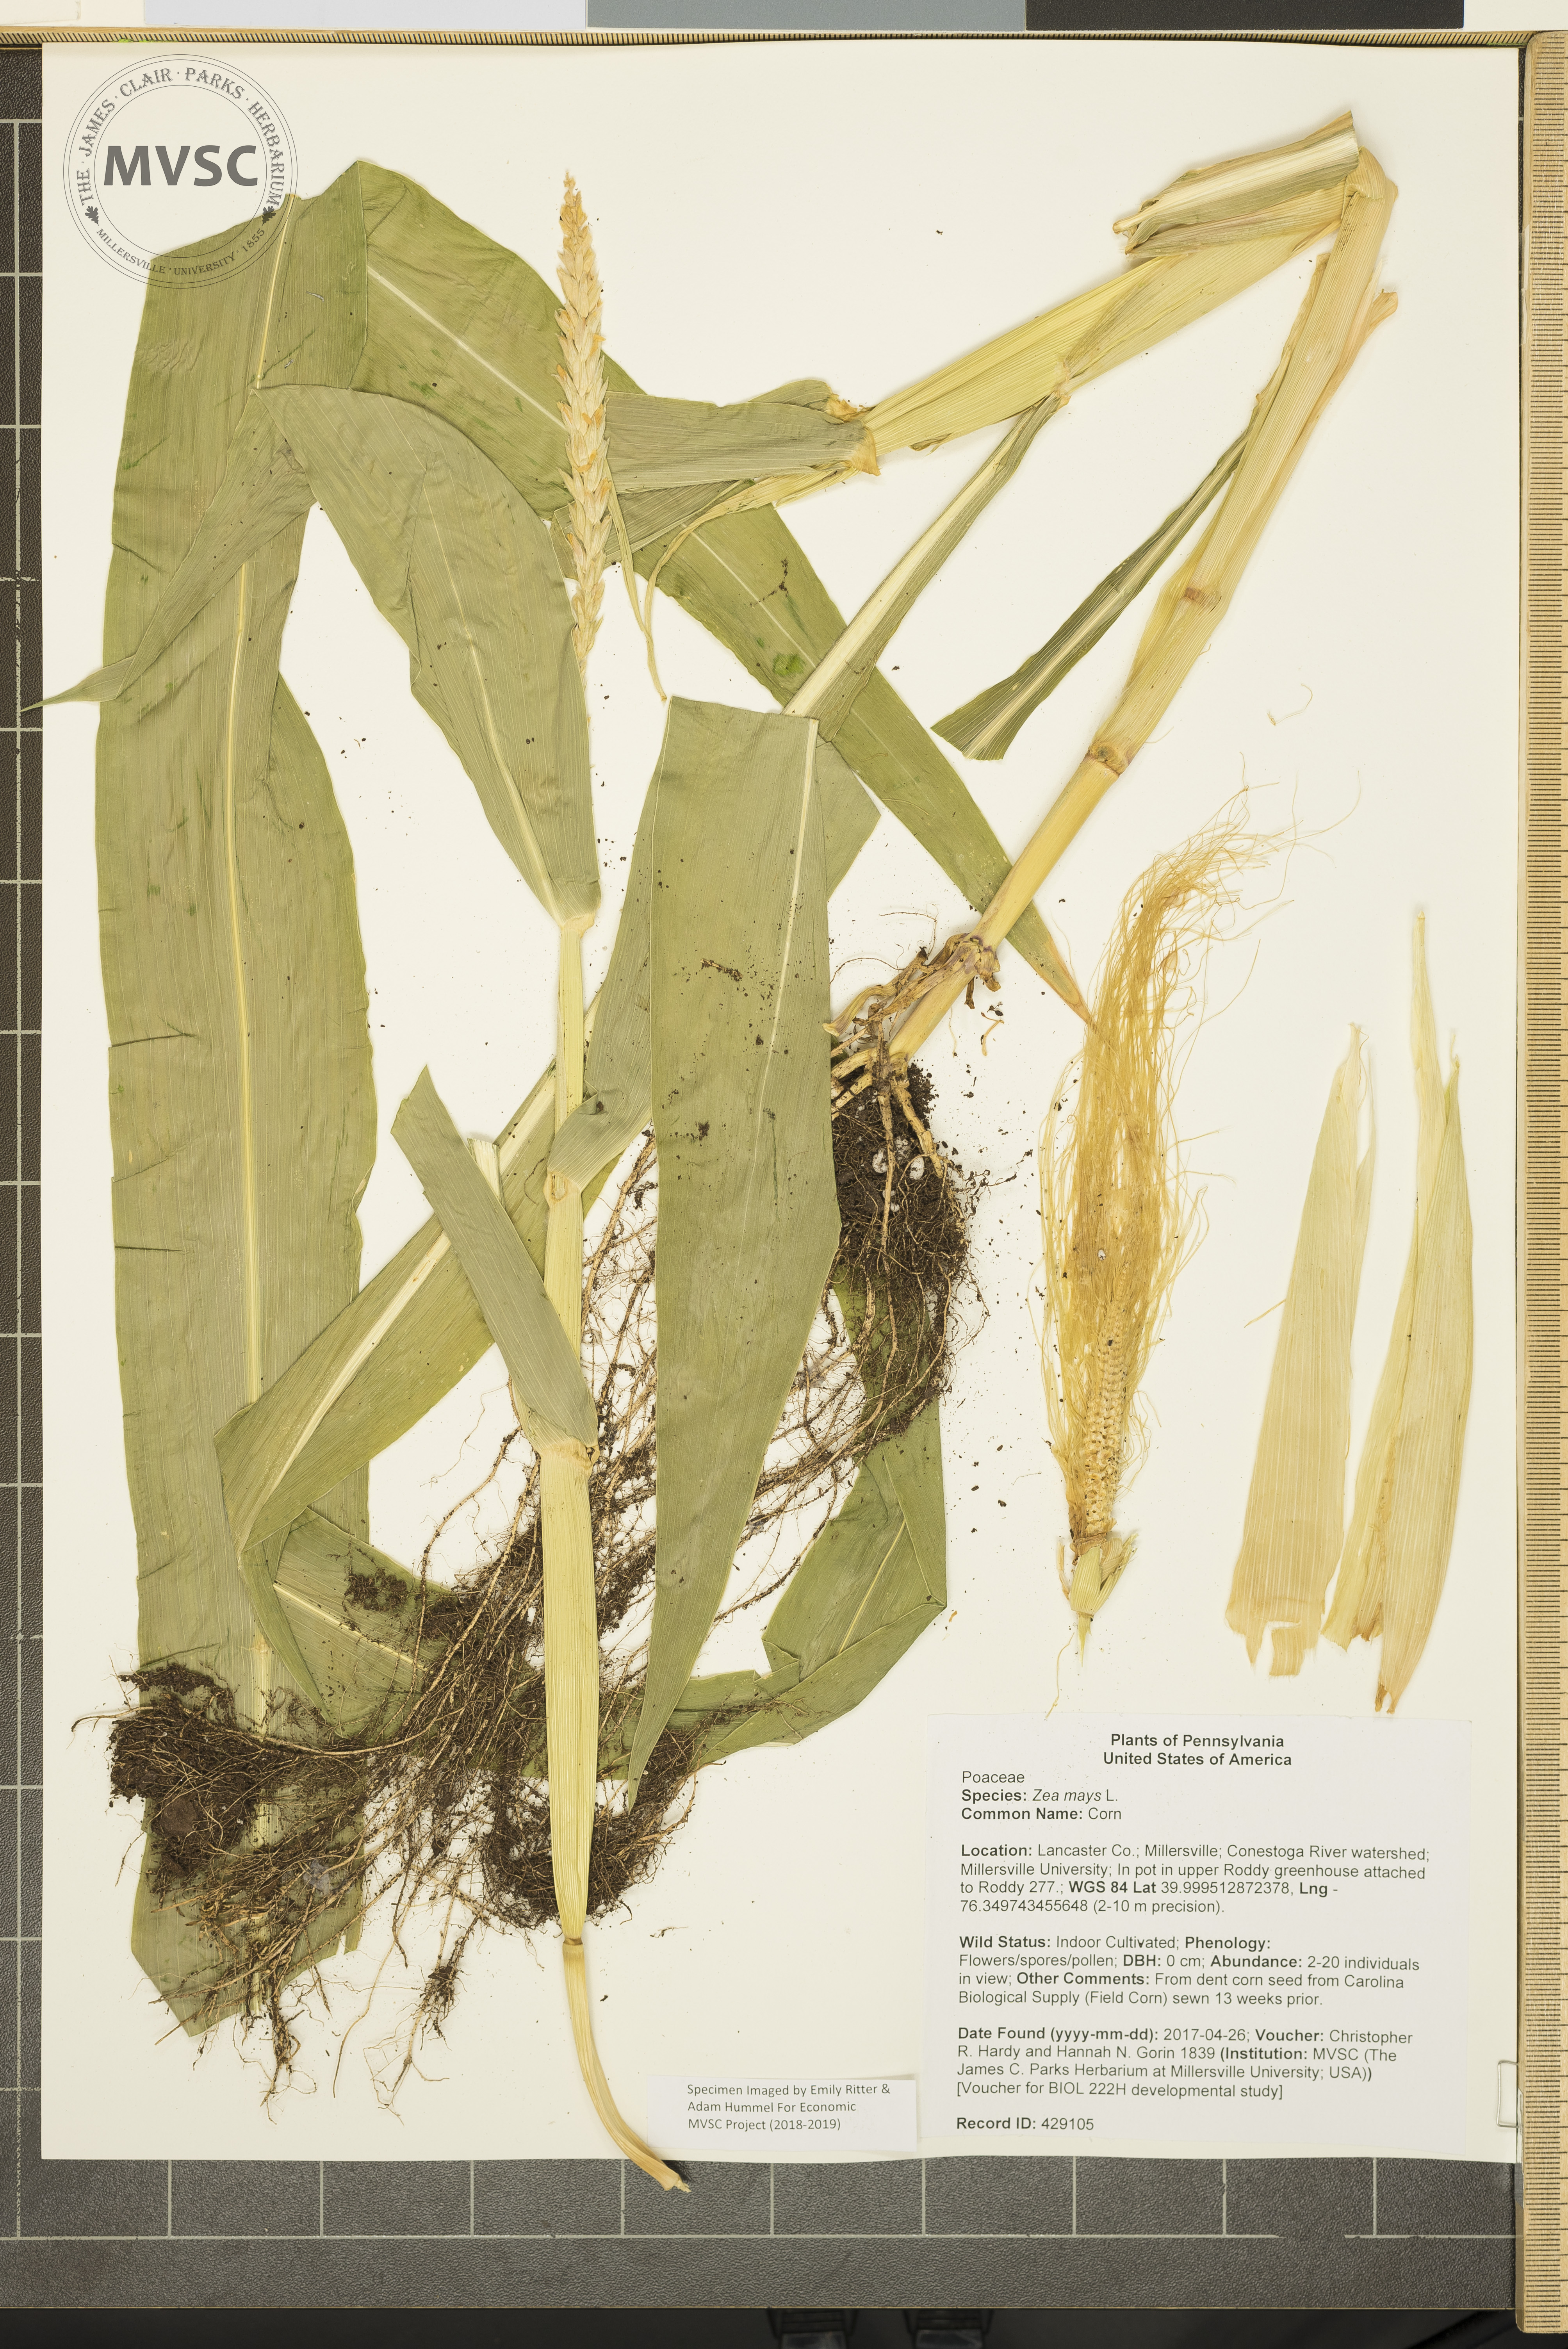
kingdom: Plantae
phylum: Tracheophyta
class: Liliopsida
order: Poales
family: Poaceae
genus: Zea
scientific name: Zea mays
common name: Corn
